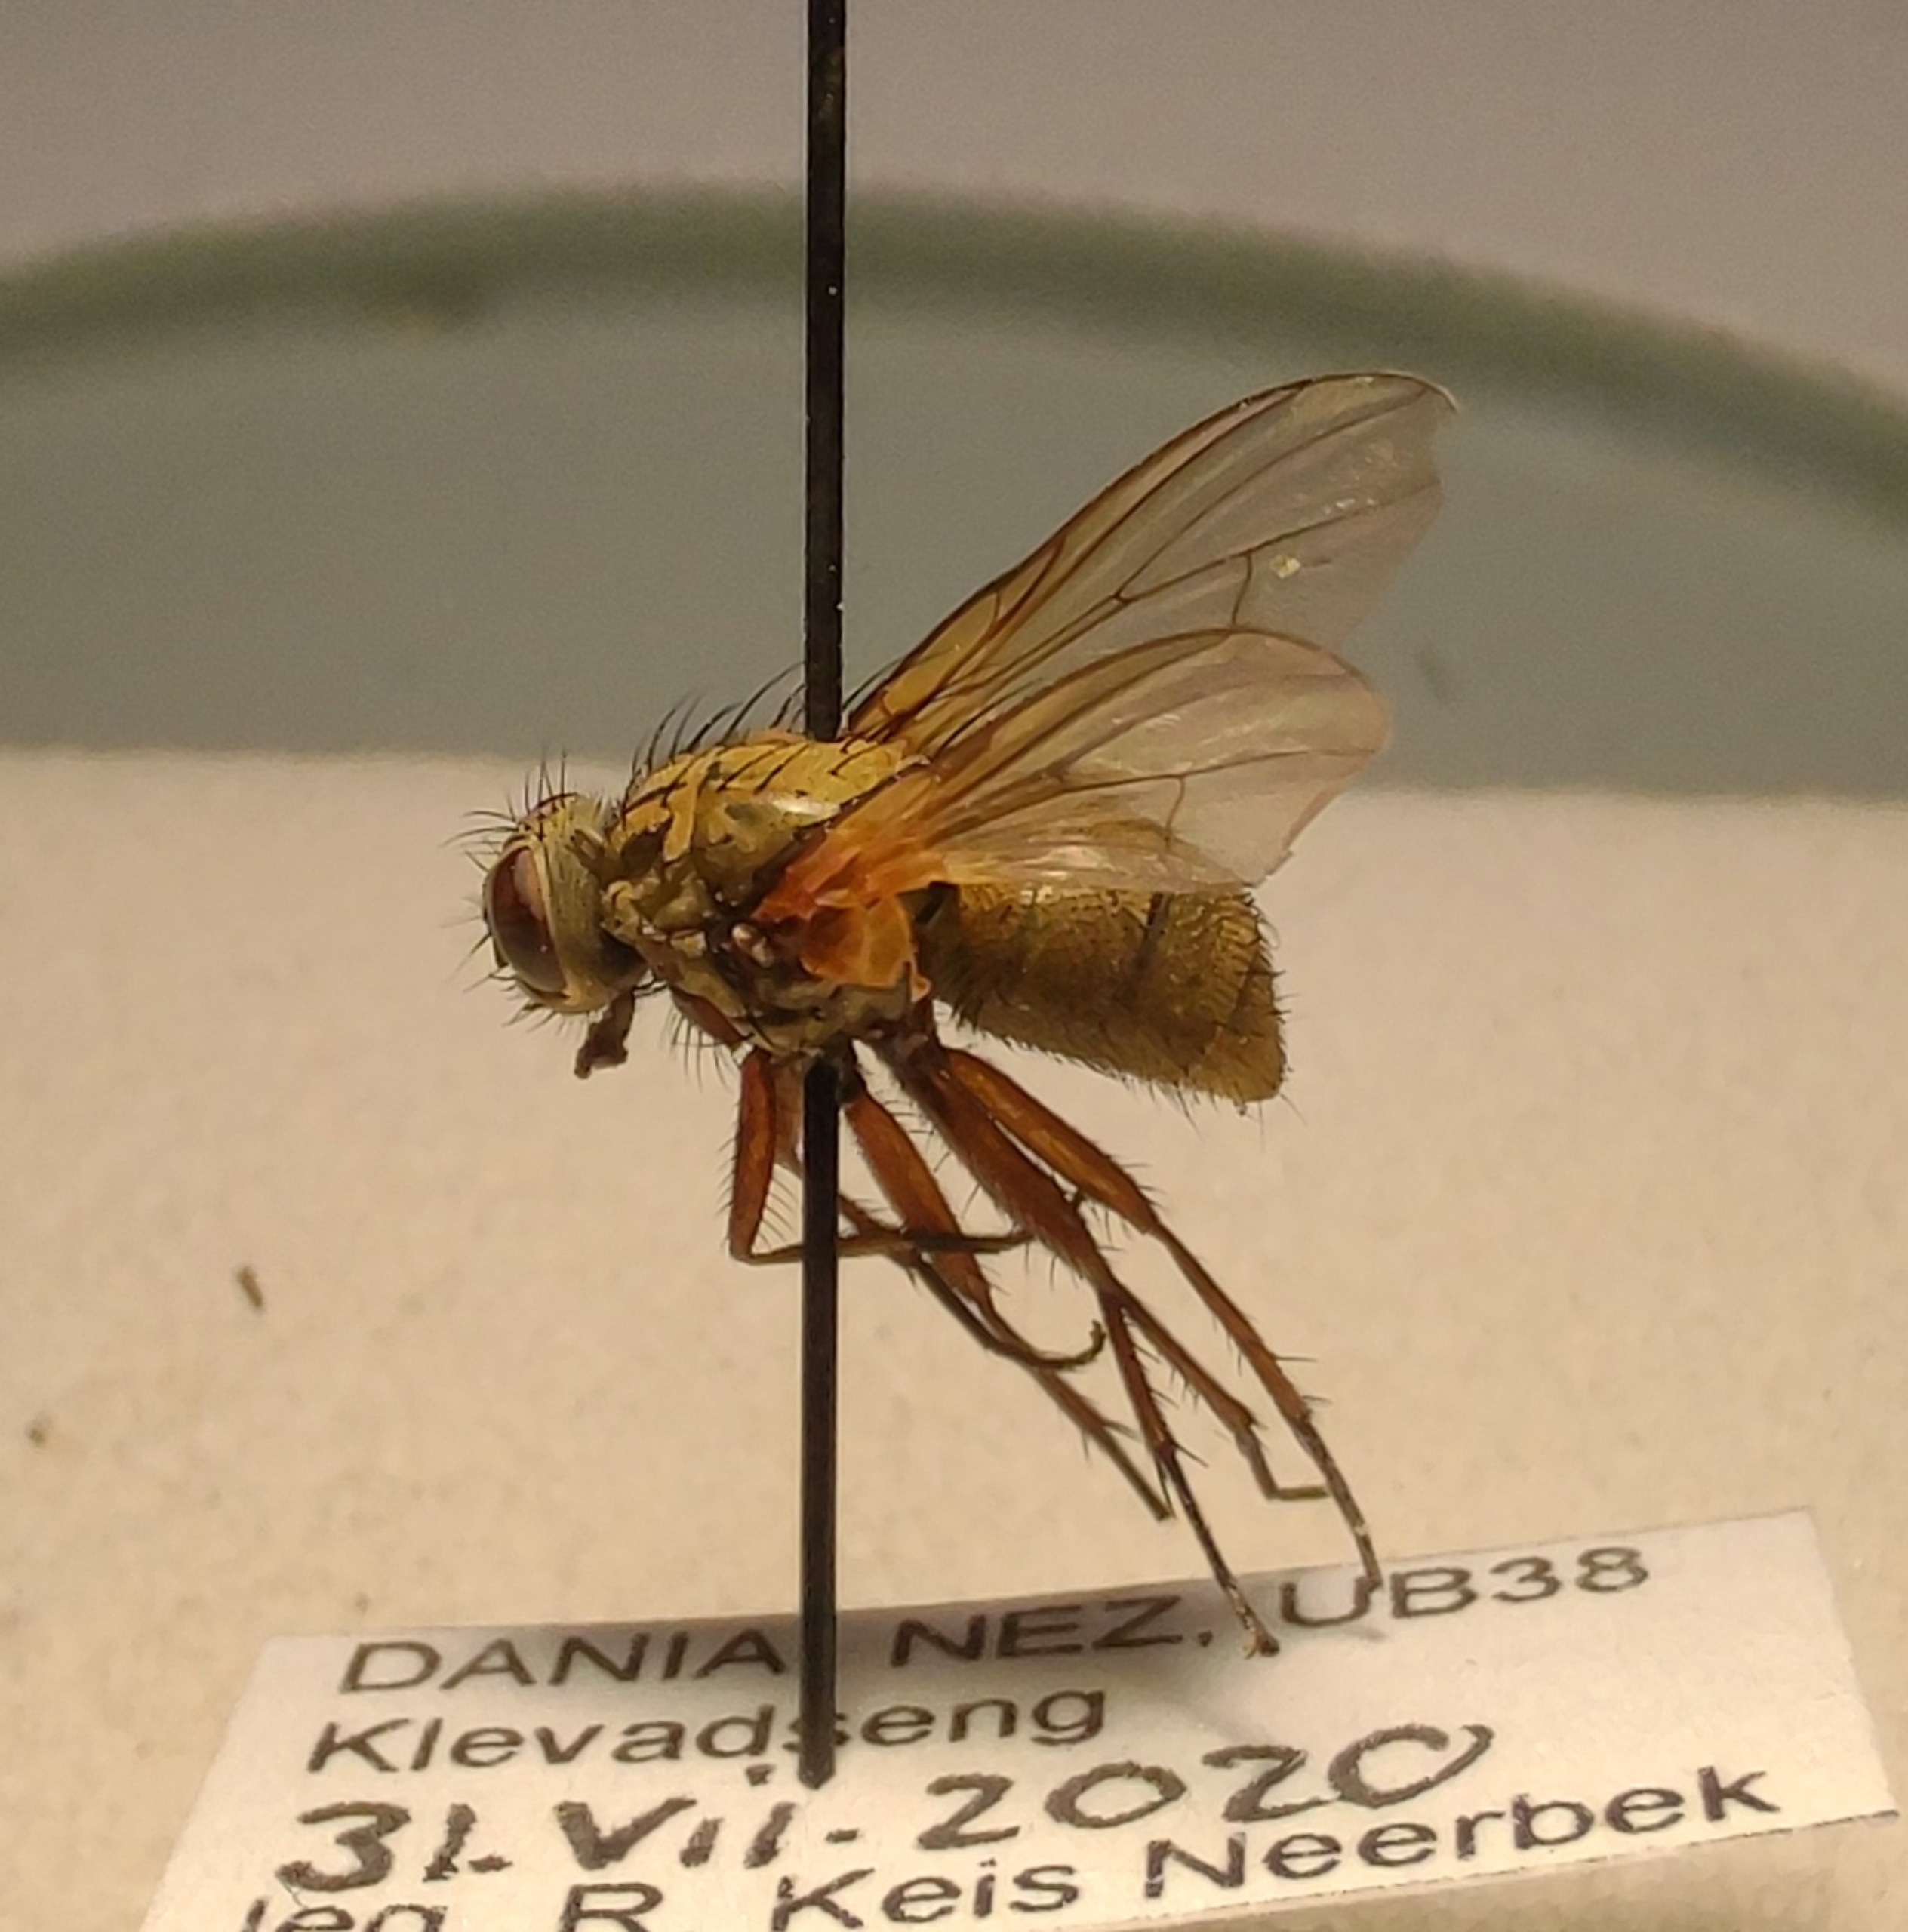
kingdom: Animalia
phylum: Arthropoda
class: Insecta
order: Diptera
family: Muscidae
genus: Phaonia
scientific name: Phaonia angelicae
